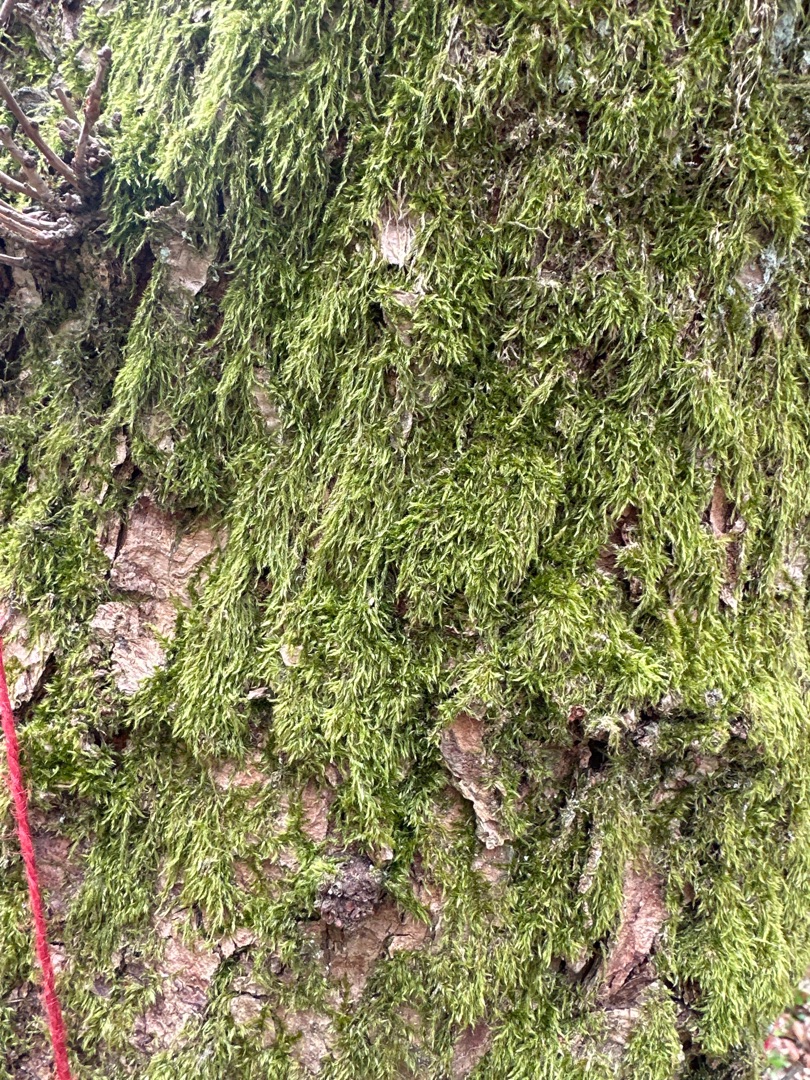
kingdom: Plantae
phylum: Bryophyta
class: Bryopsida
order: Hypnales
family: Hypnaceae
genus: Hypnum
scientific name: Hypnum
